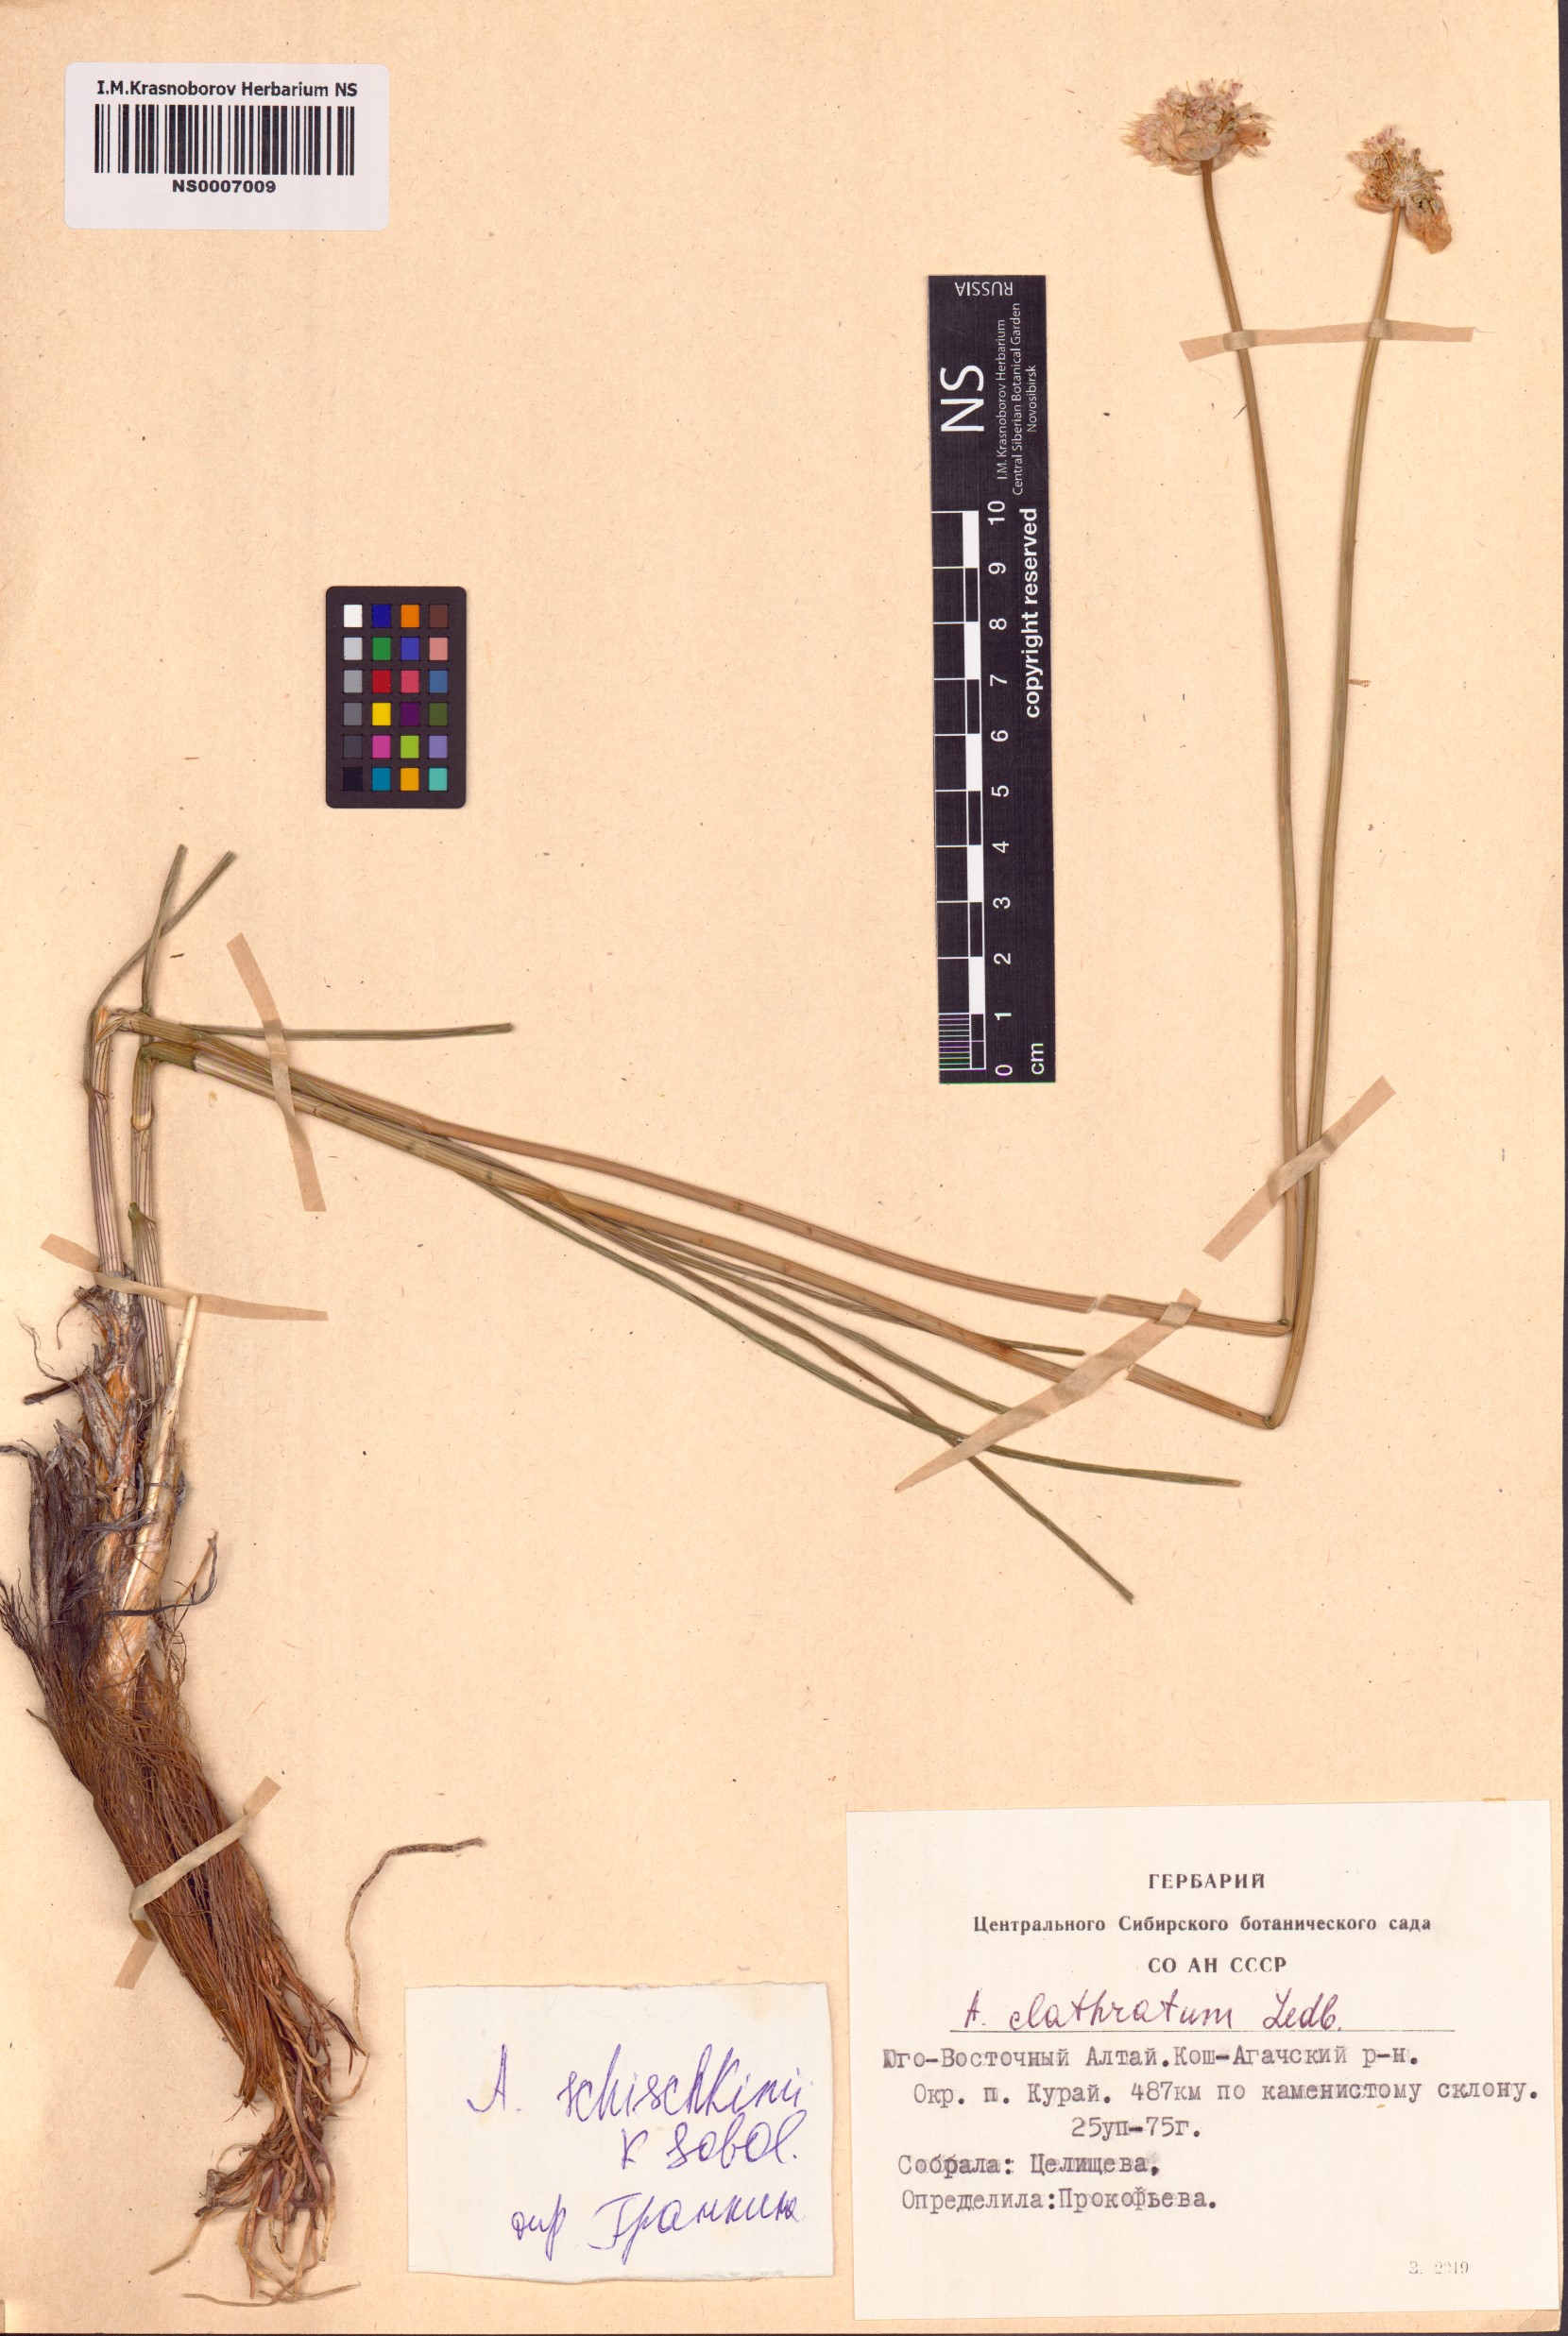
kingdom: Plantae
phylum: Tracheophyta
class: Liliopsida
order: Asparagales
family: Amaryllidaceae
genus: Allium
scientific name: Allium clathratum
